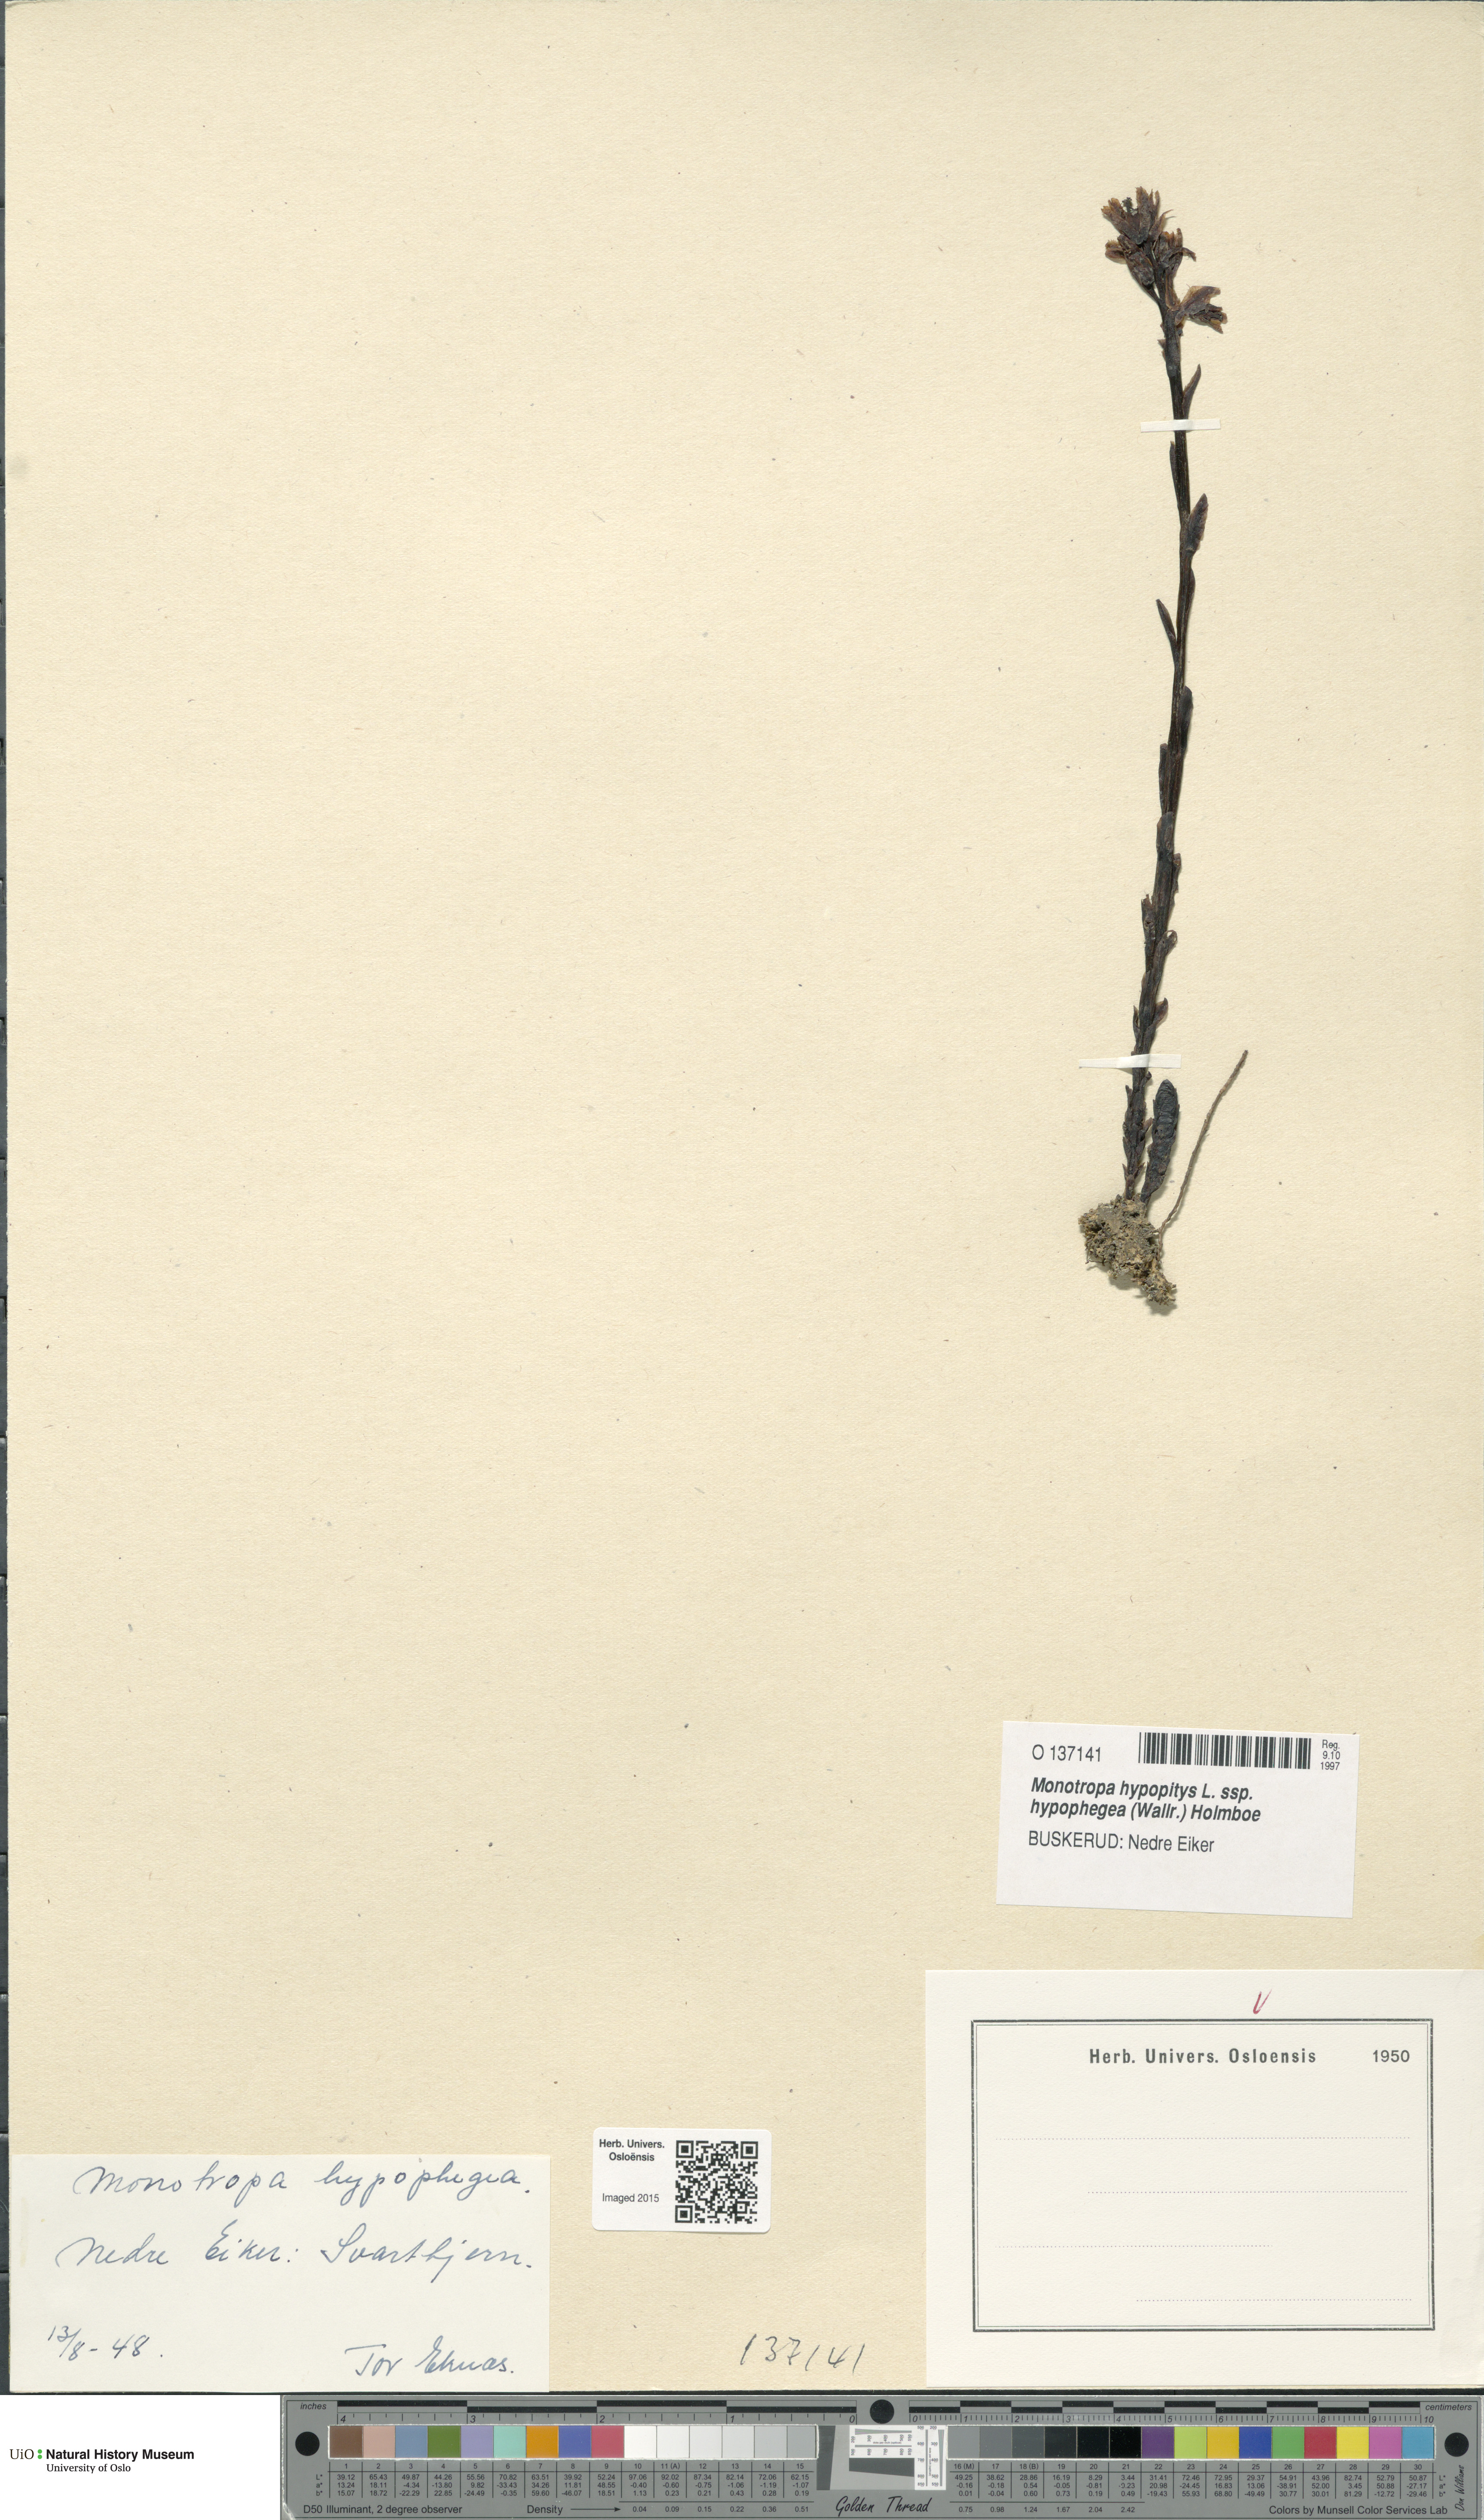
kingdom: Plantae
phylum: Tracheophyta
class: Magnoliopsida
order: Ericales
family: Ericaceae
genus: Hypopitys
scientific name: Hypopitys hypophegea
